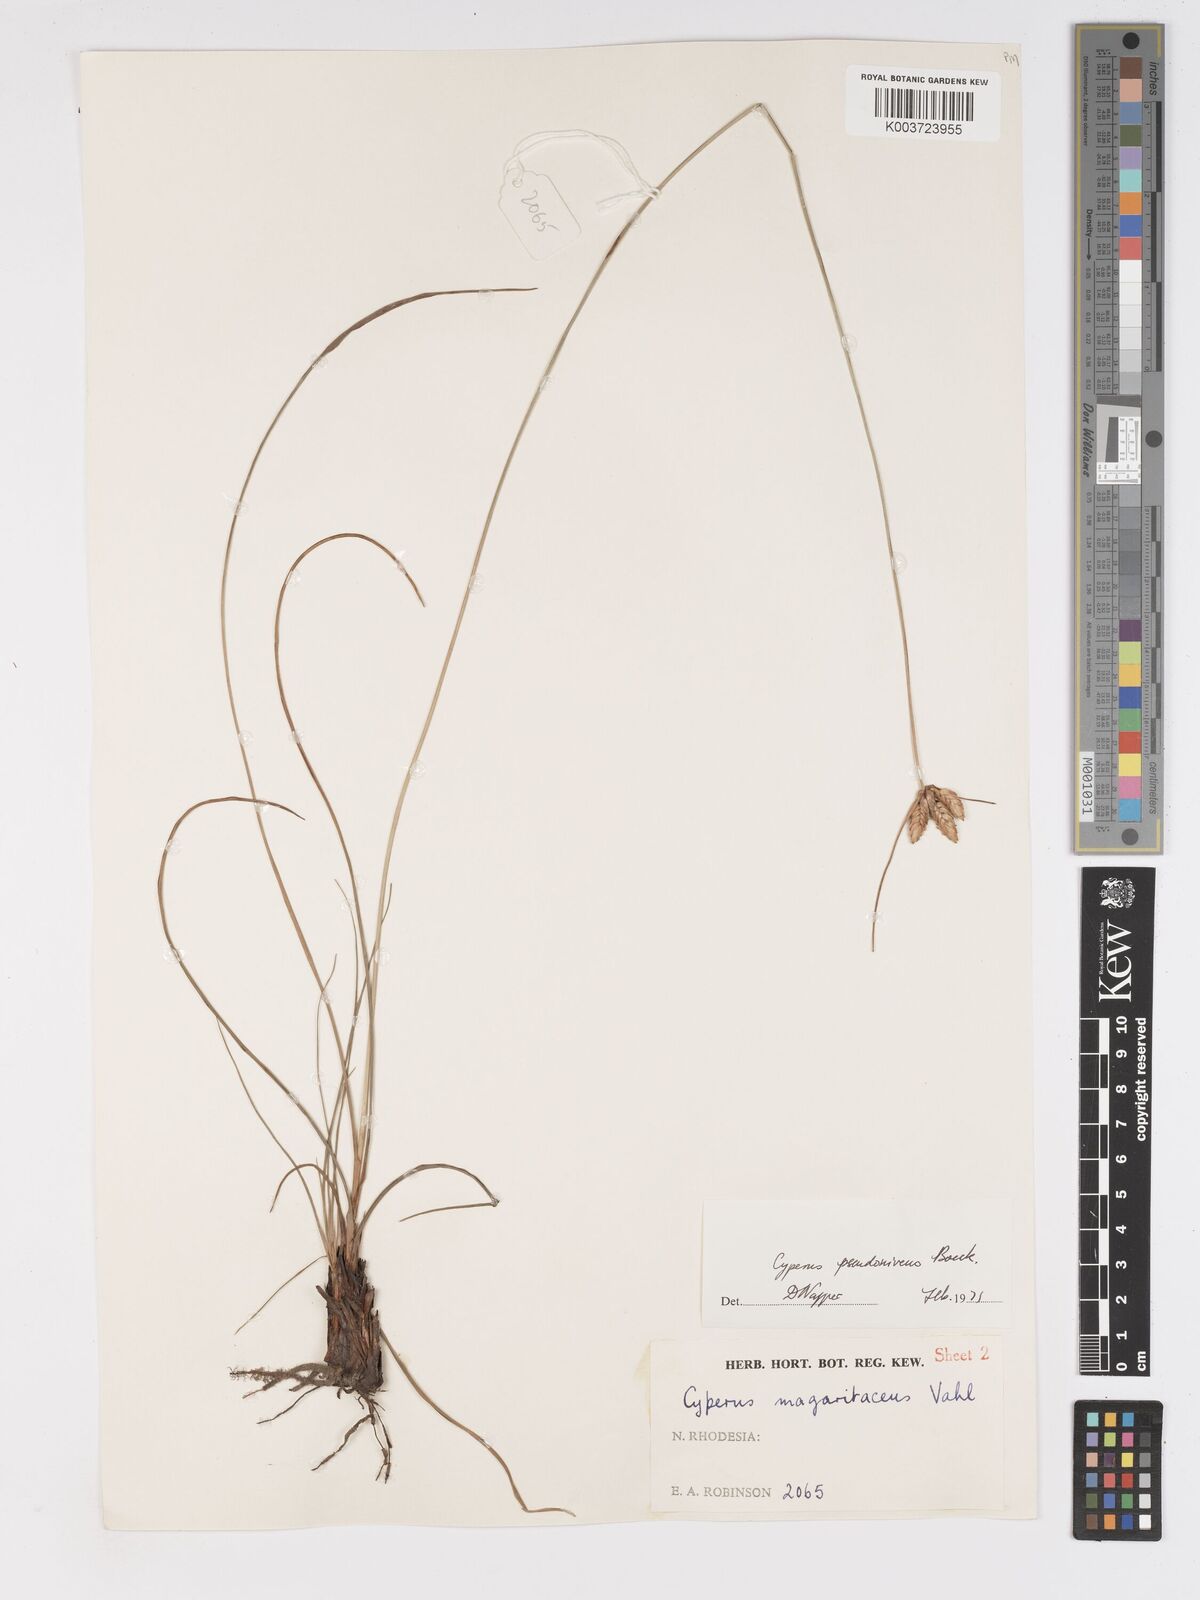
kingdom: Plantae
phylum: Tracheophyta
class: Liliopsida
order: Poales
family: Cyperaceae
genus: Cyperus
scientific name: Cyperus margaritaceus
